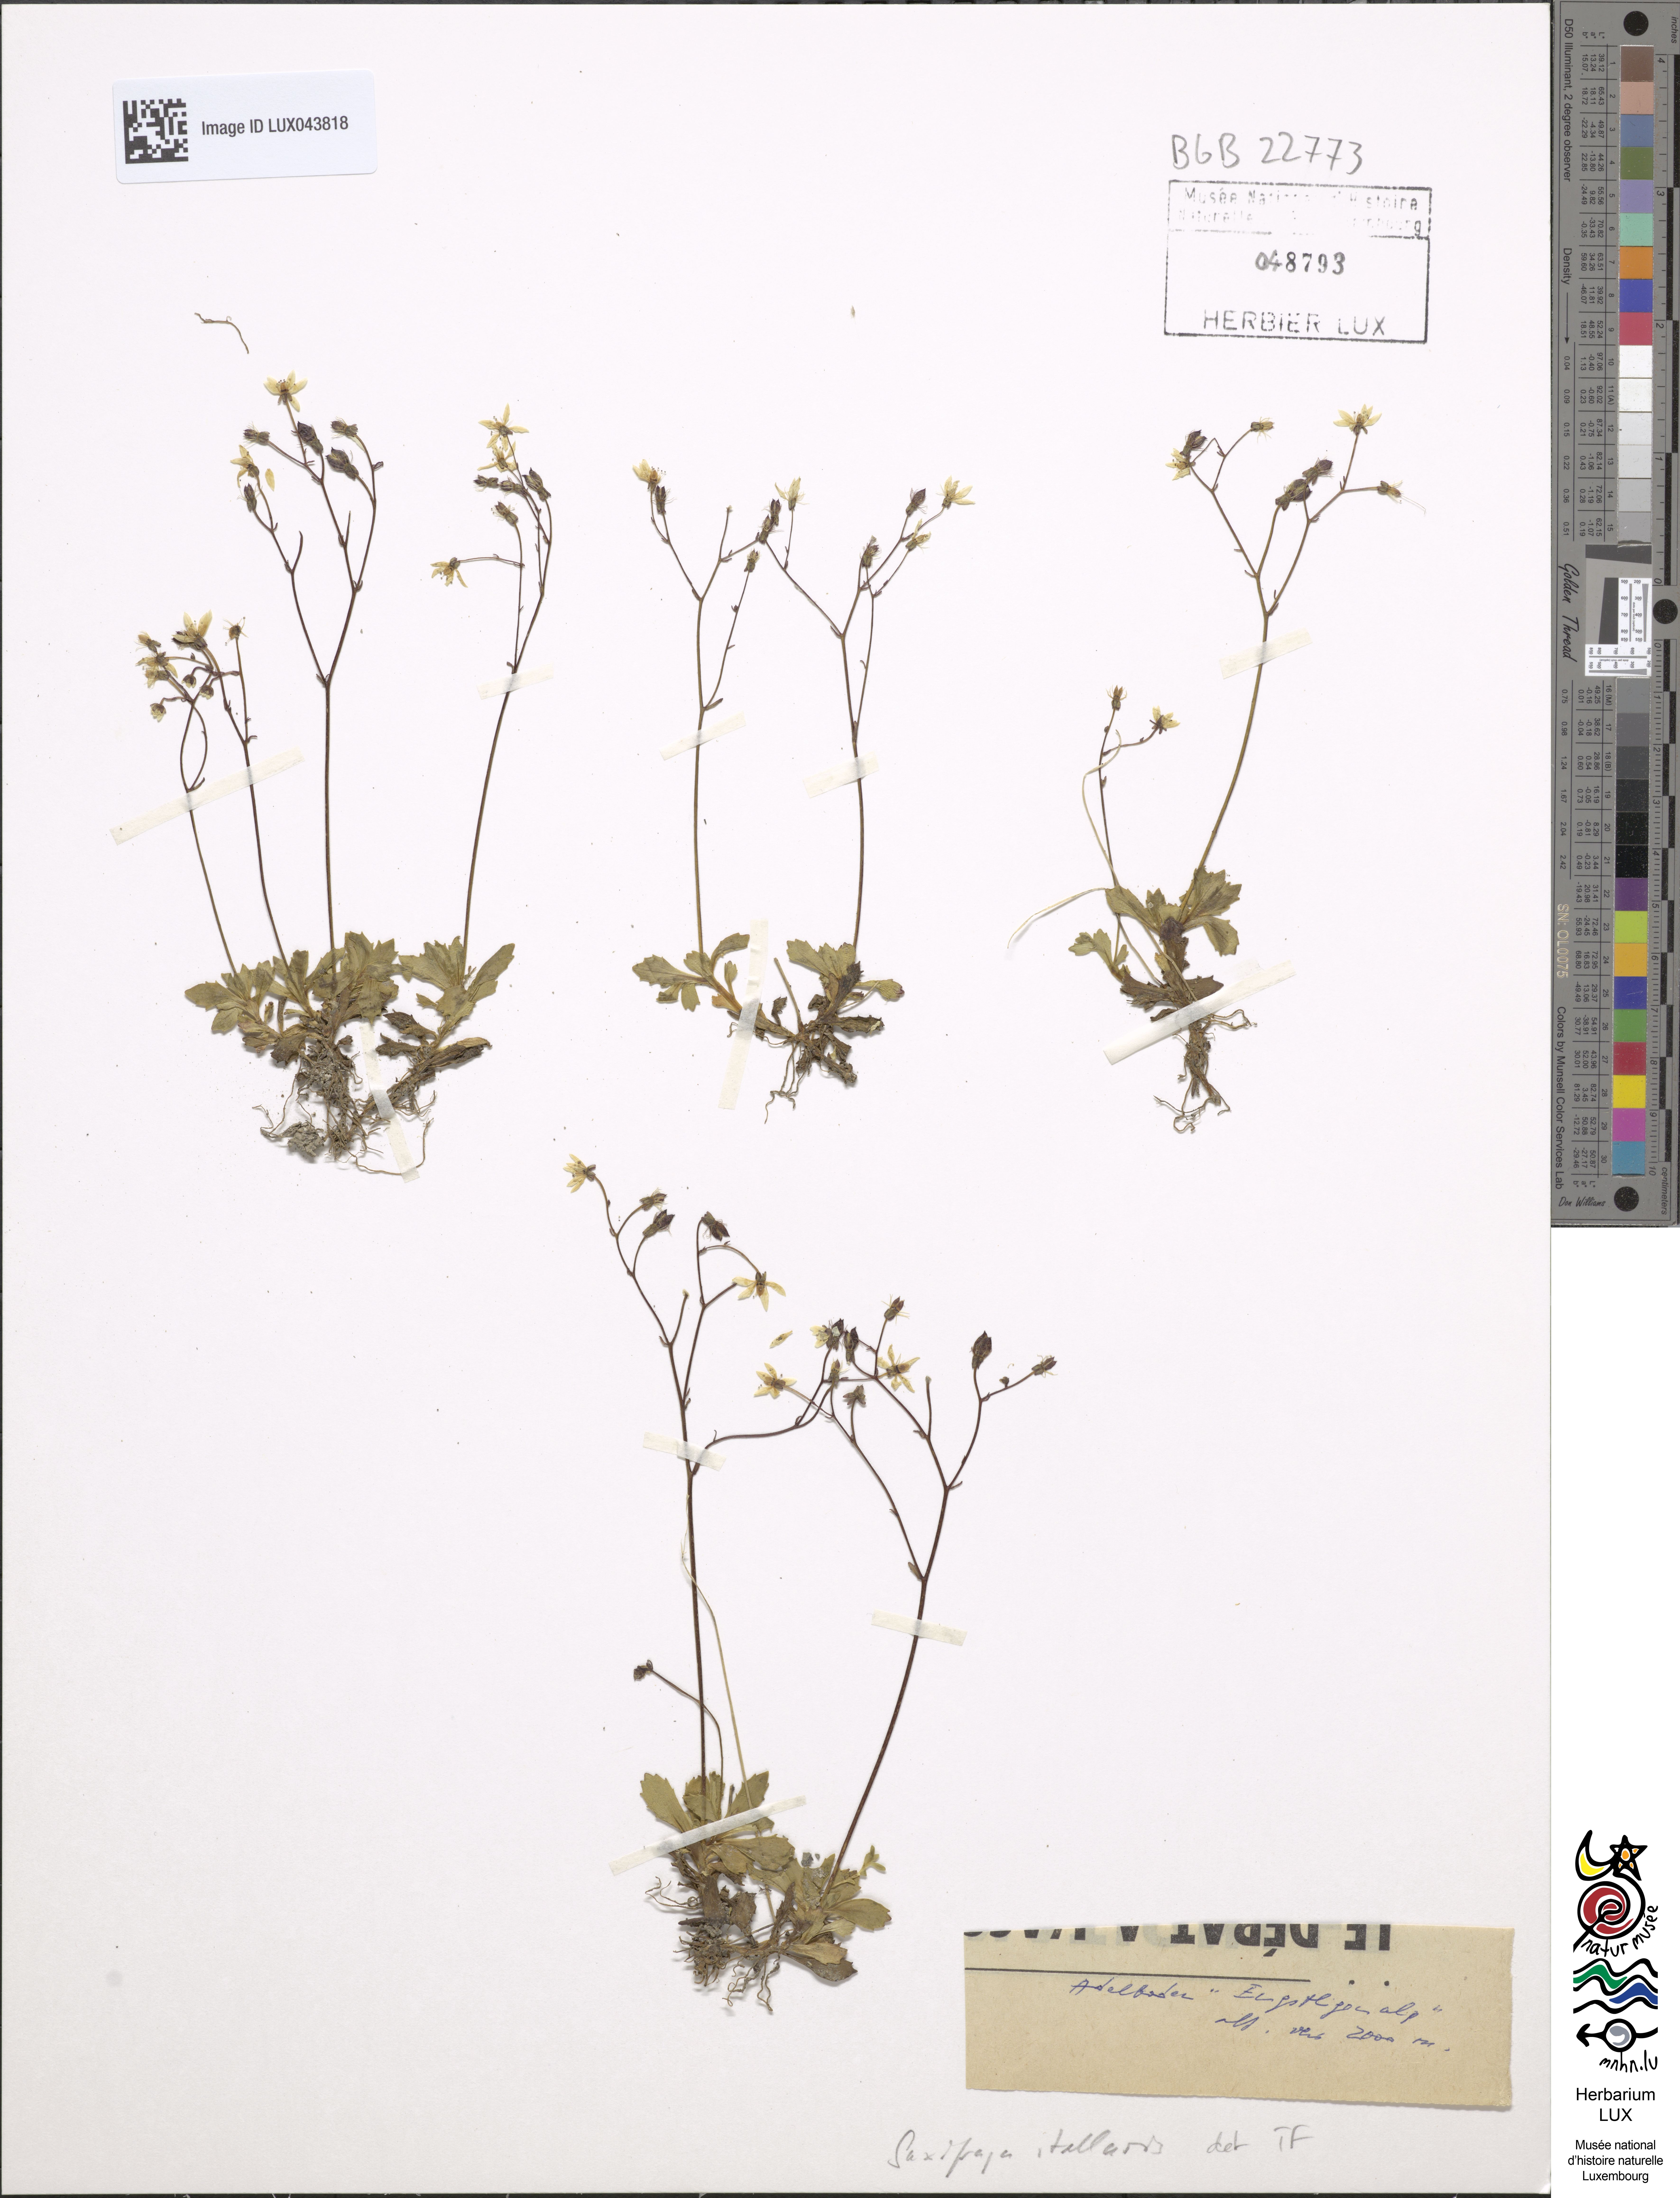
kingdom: Plantae
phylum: Tracheophyta
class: Magnoliopsida
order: Saxifragales
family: Saxifragaceae
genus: Micranthes
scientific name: Micranthes stellaris
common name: Starry saxifrage
